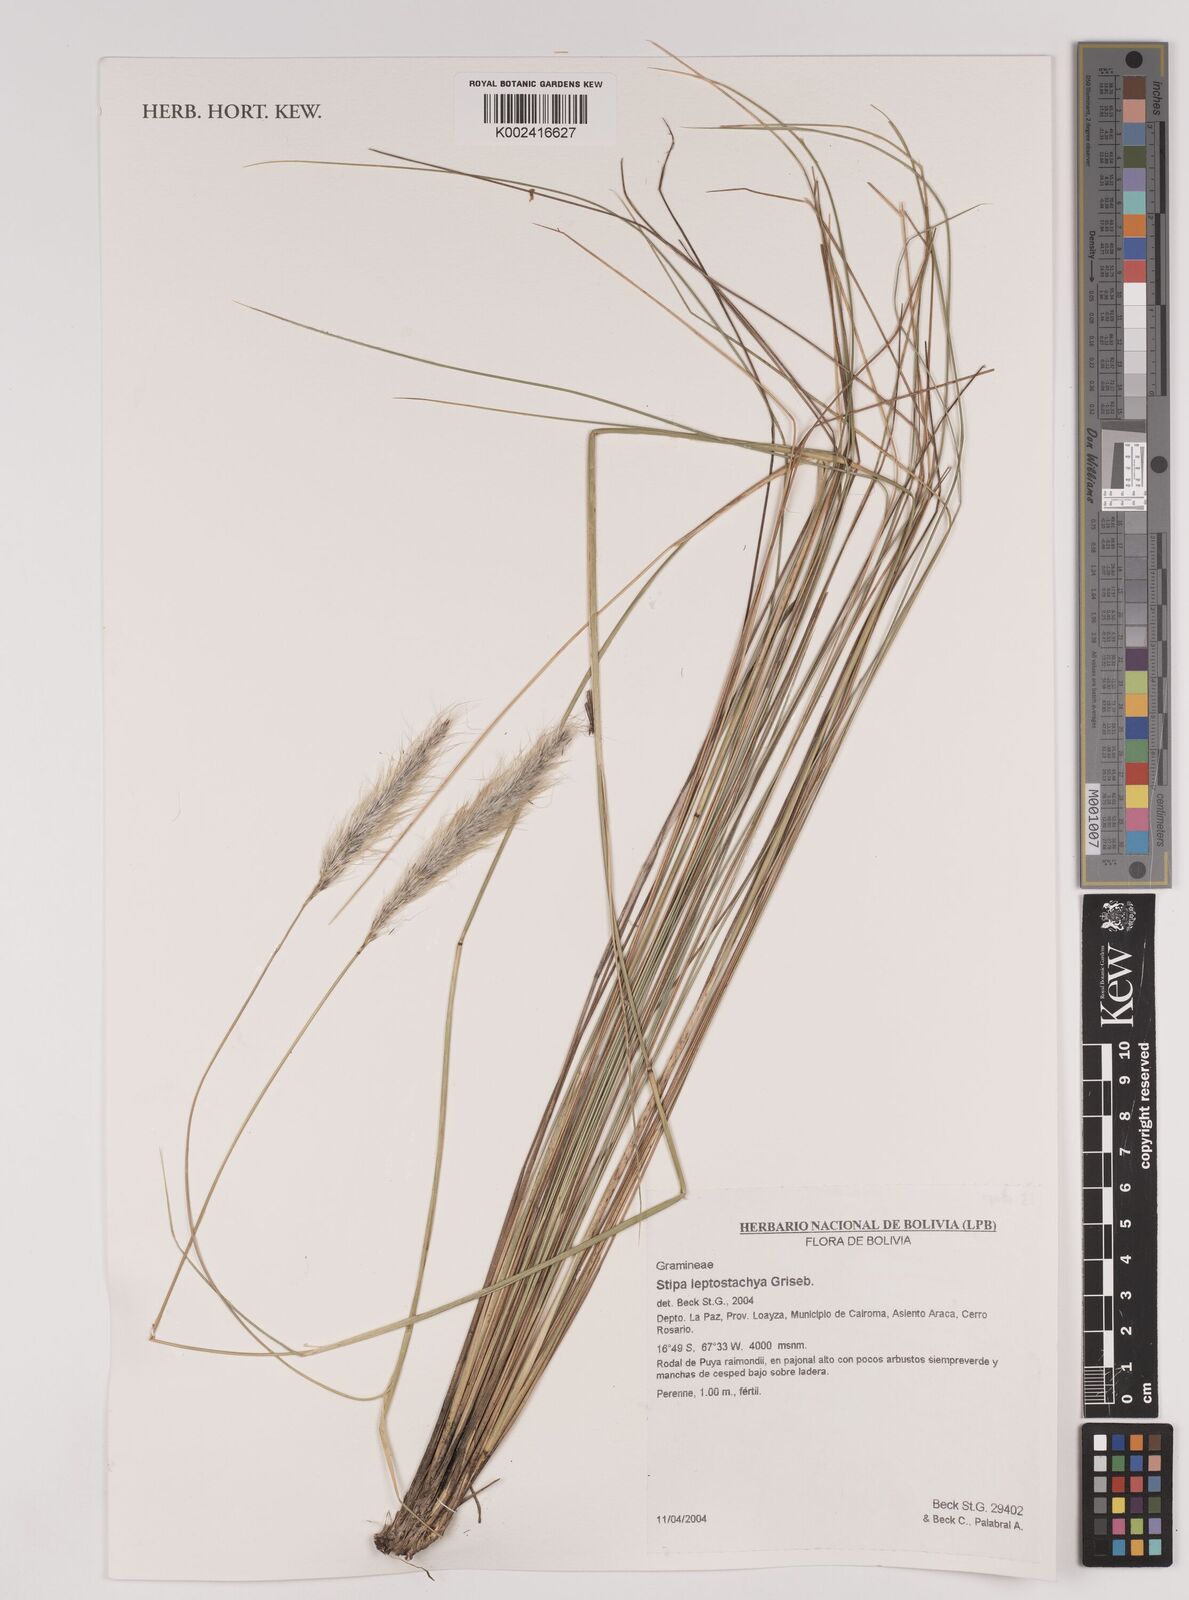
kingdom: Plantae
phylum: Tracheophyta
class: Liliopsida
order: Poales
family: Poaceae
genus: Jarava
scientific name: Jarava leptostachya
